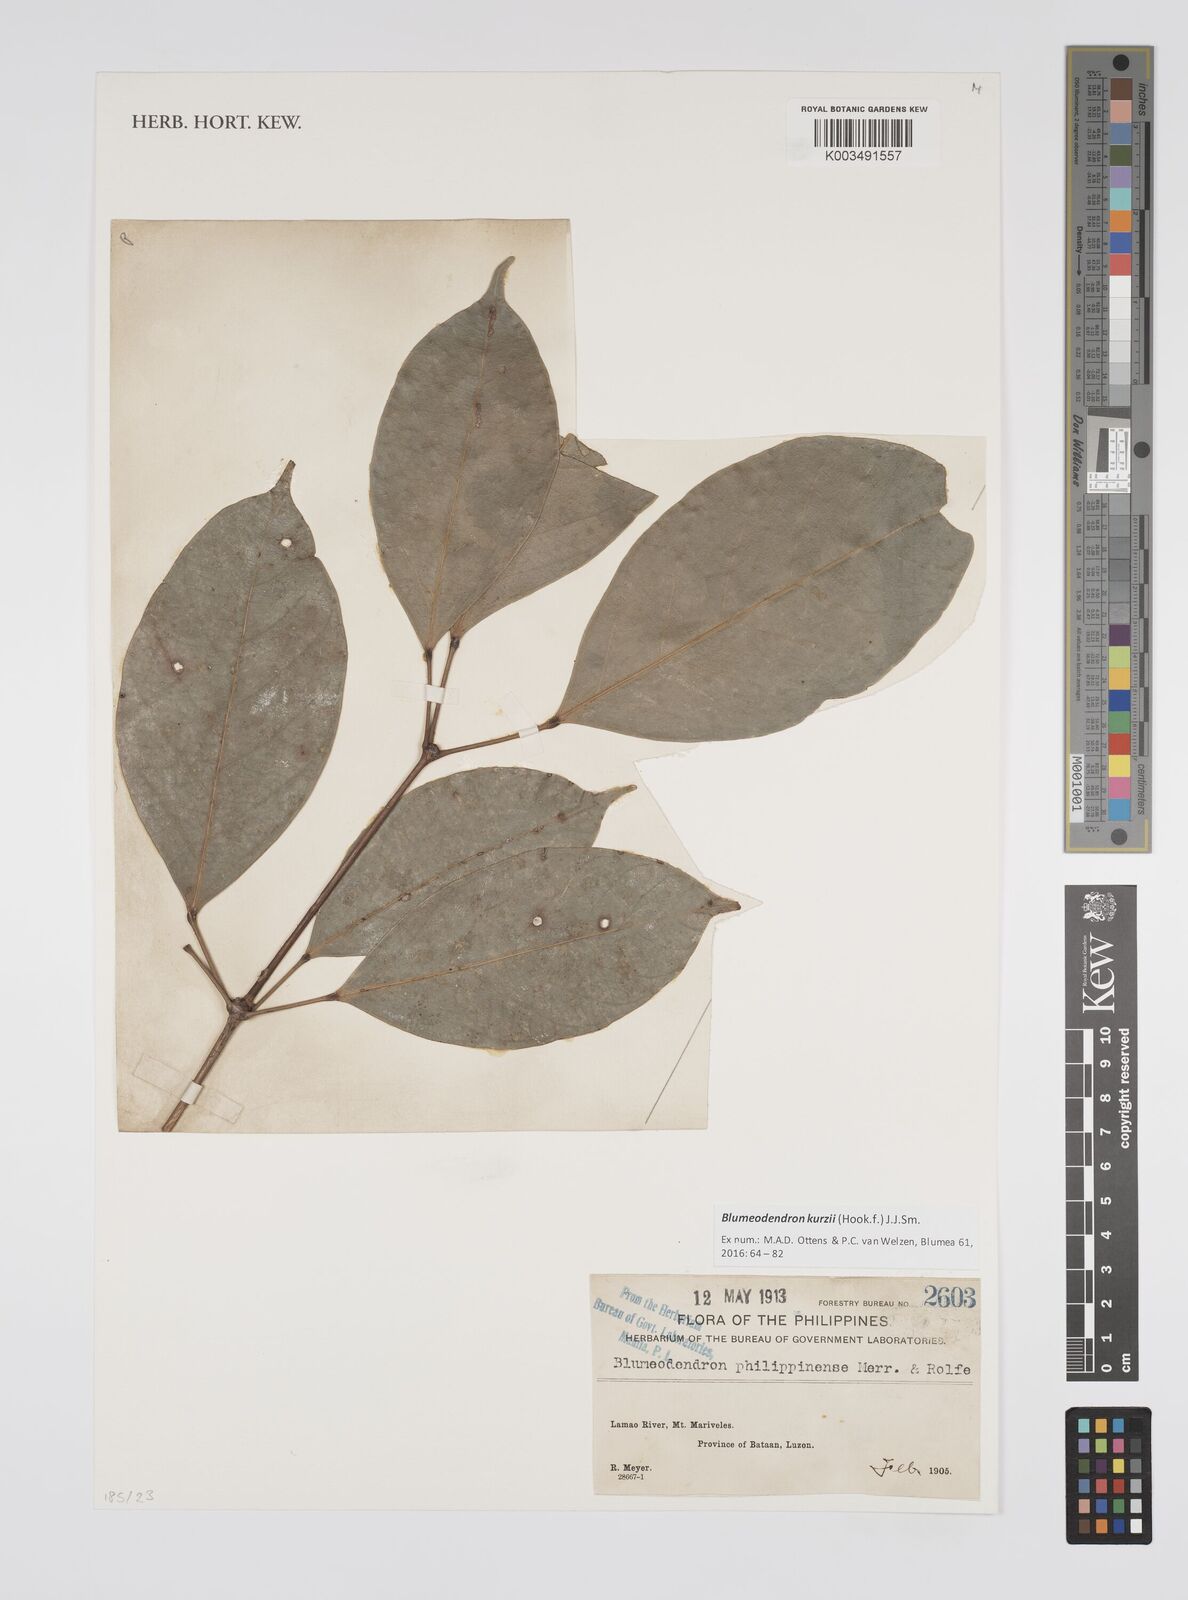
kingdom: Plantae
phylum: Tracheophyta
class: Magnoliopsida
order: Malpighiales
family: Euphorbiaceae
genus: Blumeodendron
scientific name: Blumeodendron kurzii
